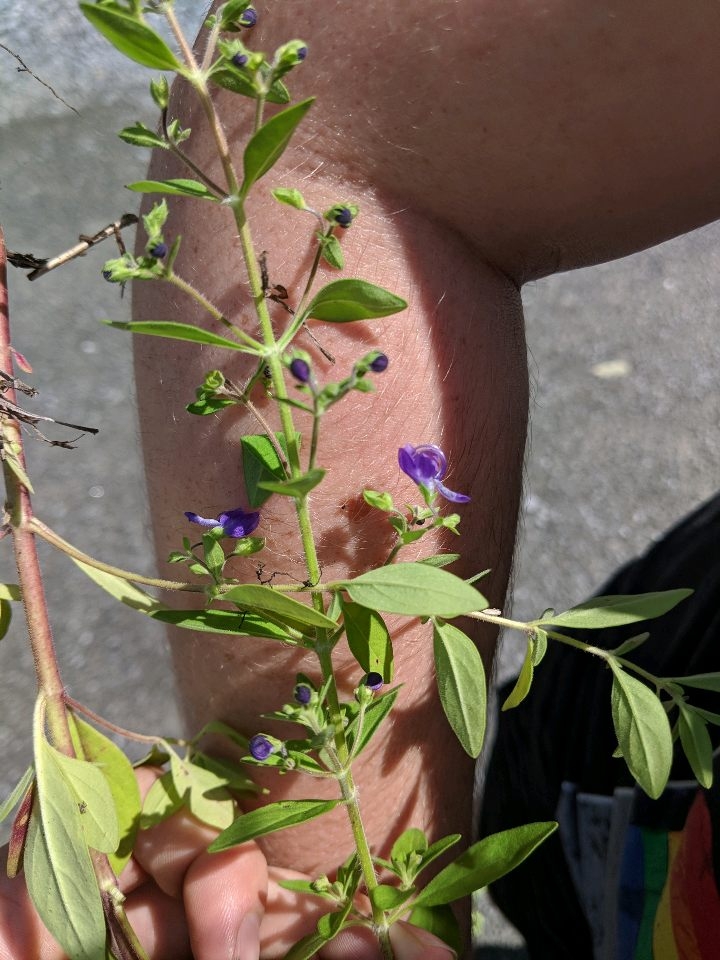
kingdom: Plantae
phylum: Tracheophyta
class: Magnoliopsida
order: Lamiales
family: Lamiaceae
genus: Trichostema
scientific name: Trichostema dichotomum
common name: blue curls
